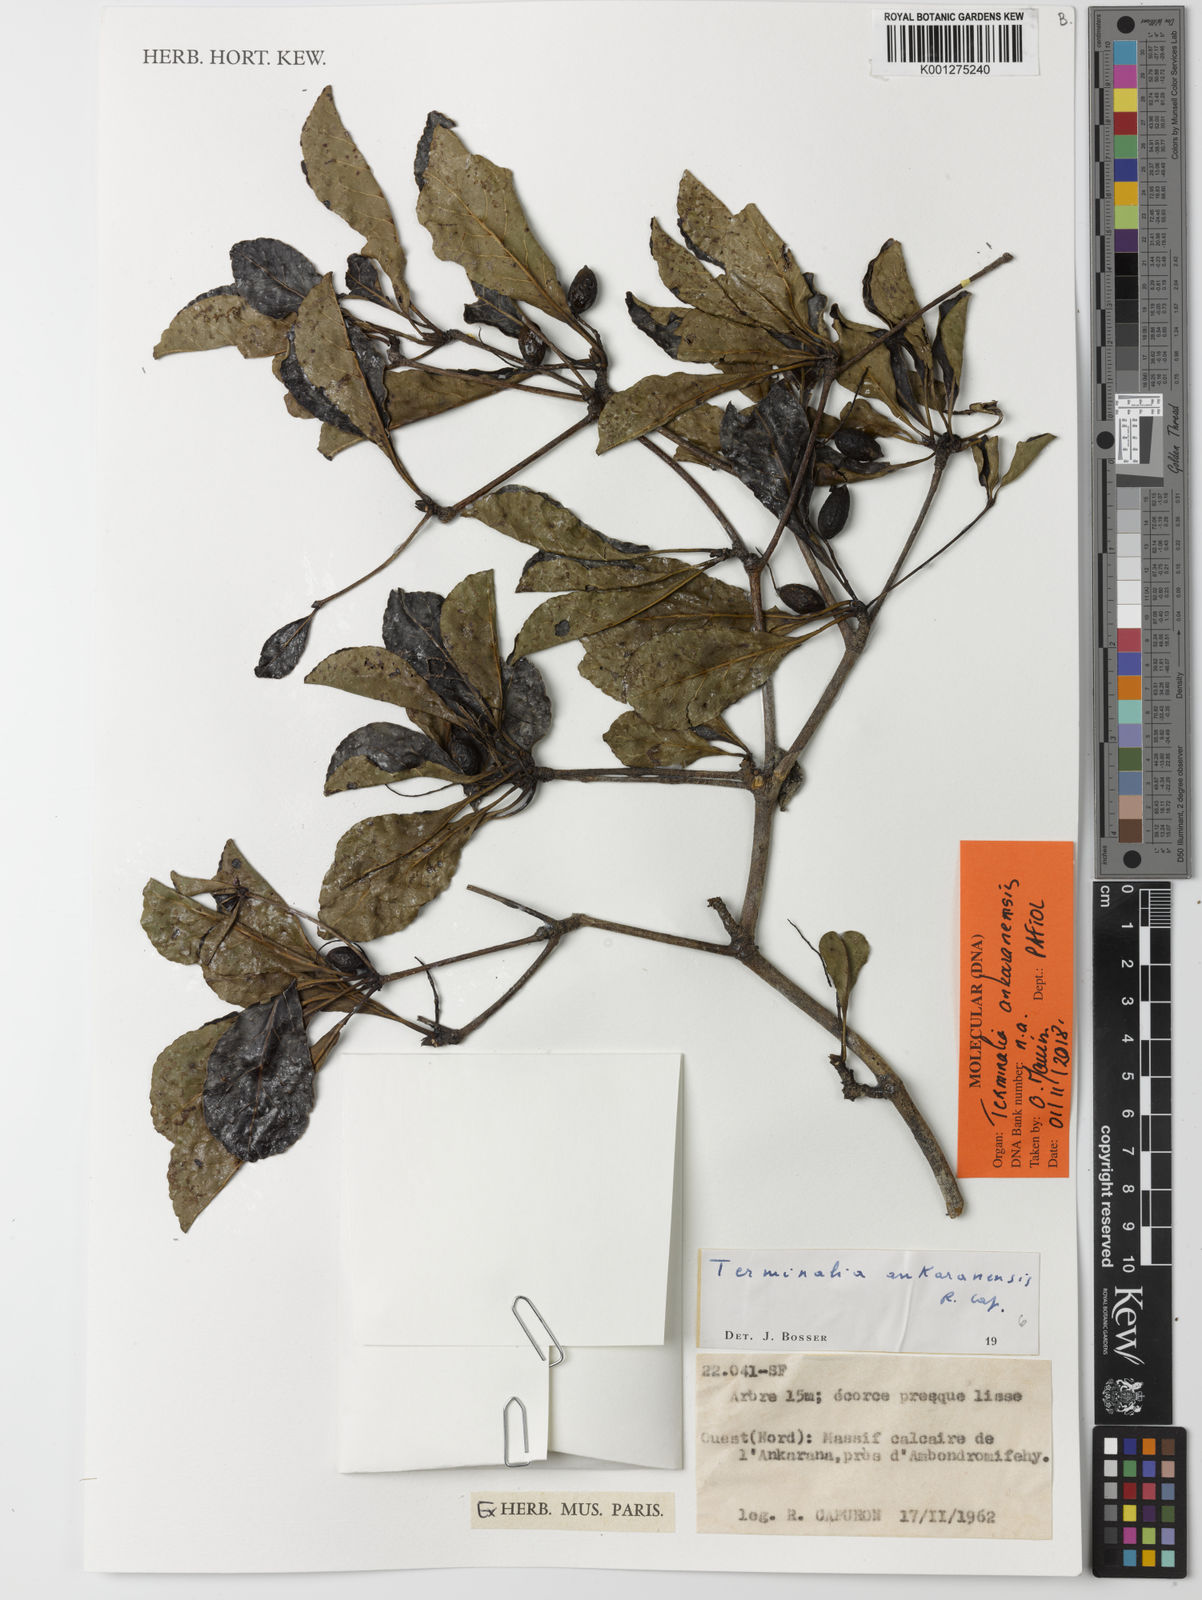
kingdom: Plantae
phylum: Tracheophyta
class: Magnoliopsida
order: Myrtales
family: Combretaceae
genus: Terminalia
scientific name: Terminalia ankaranensis
